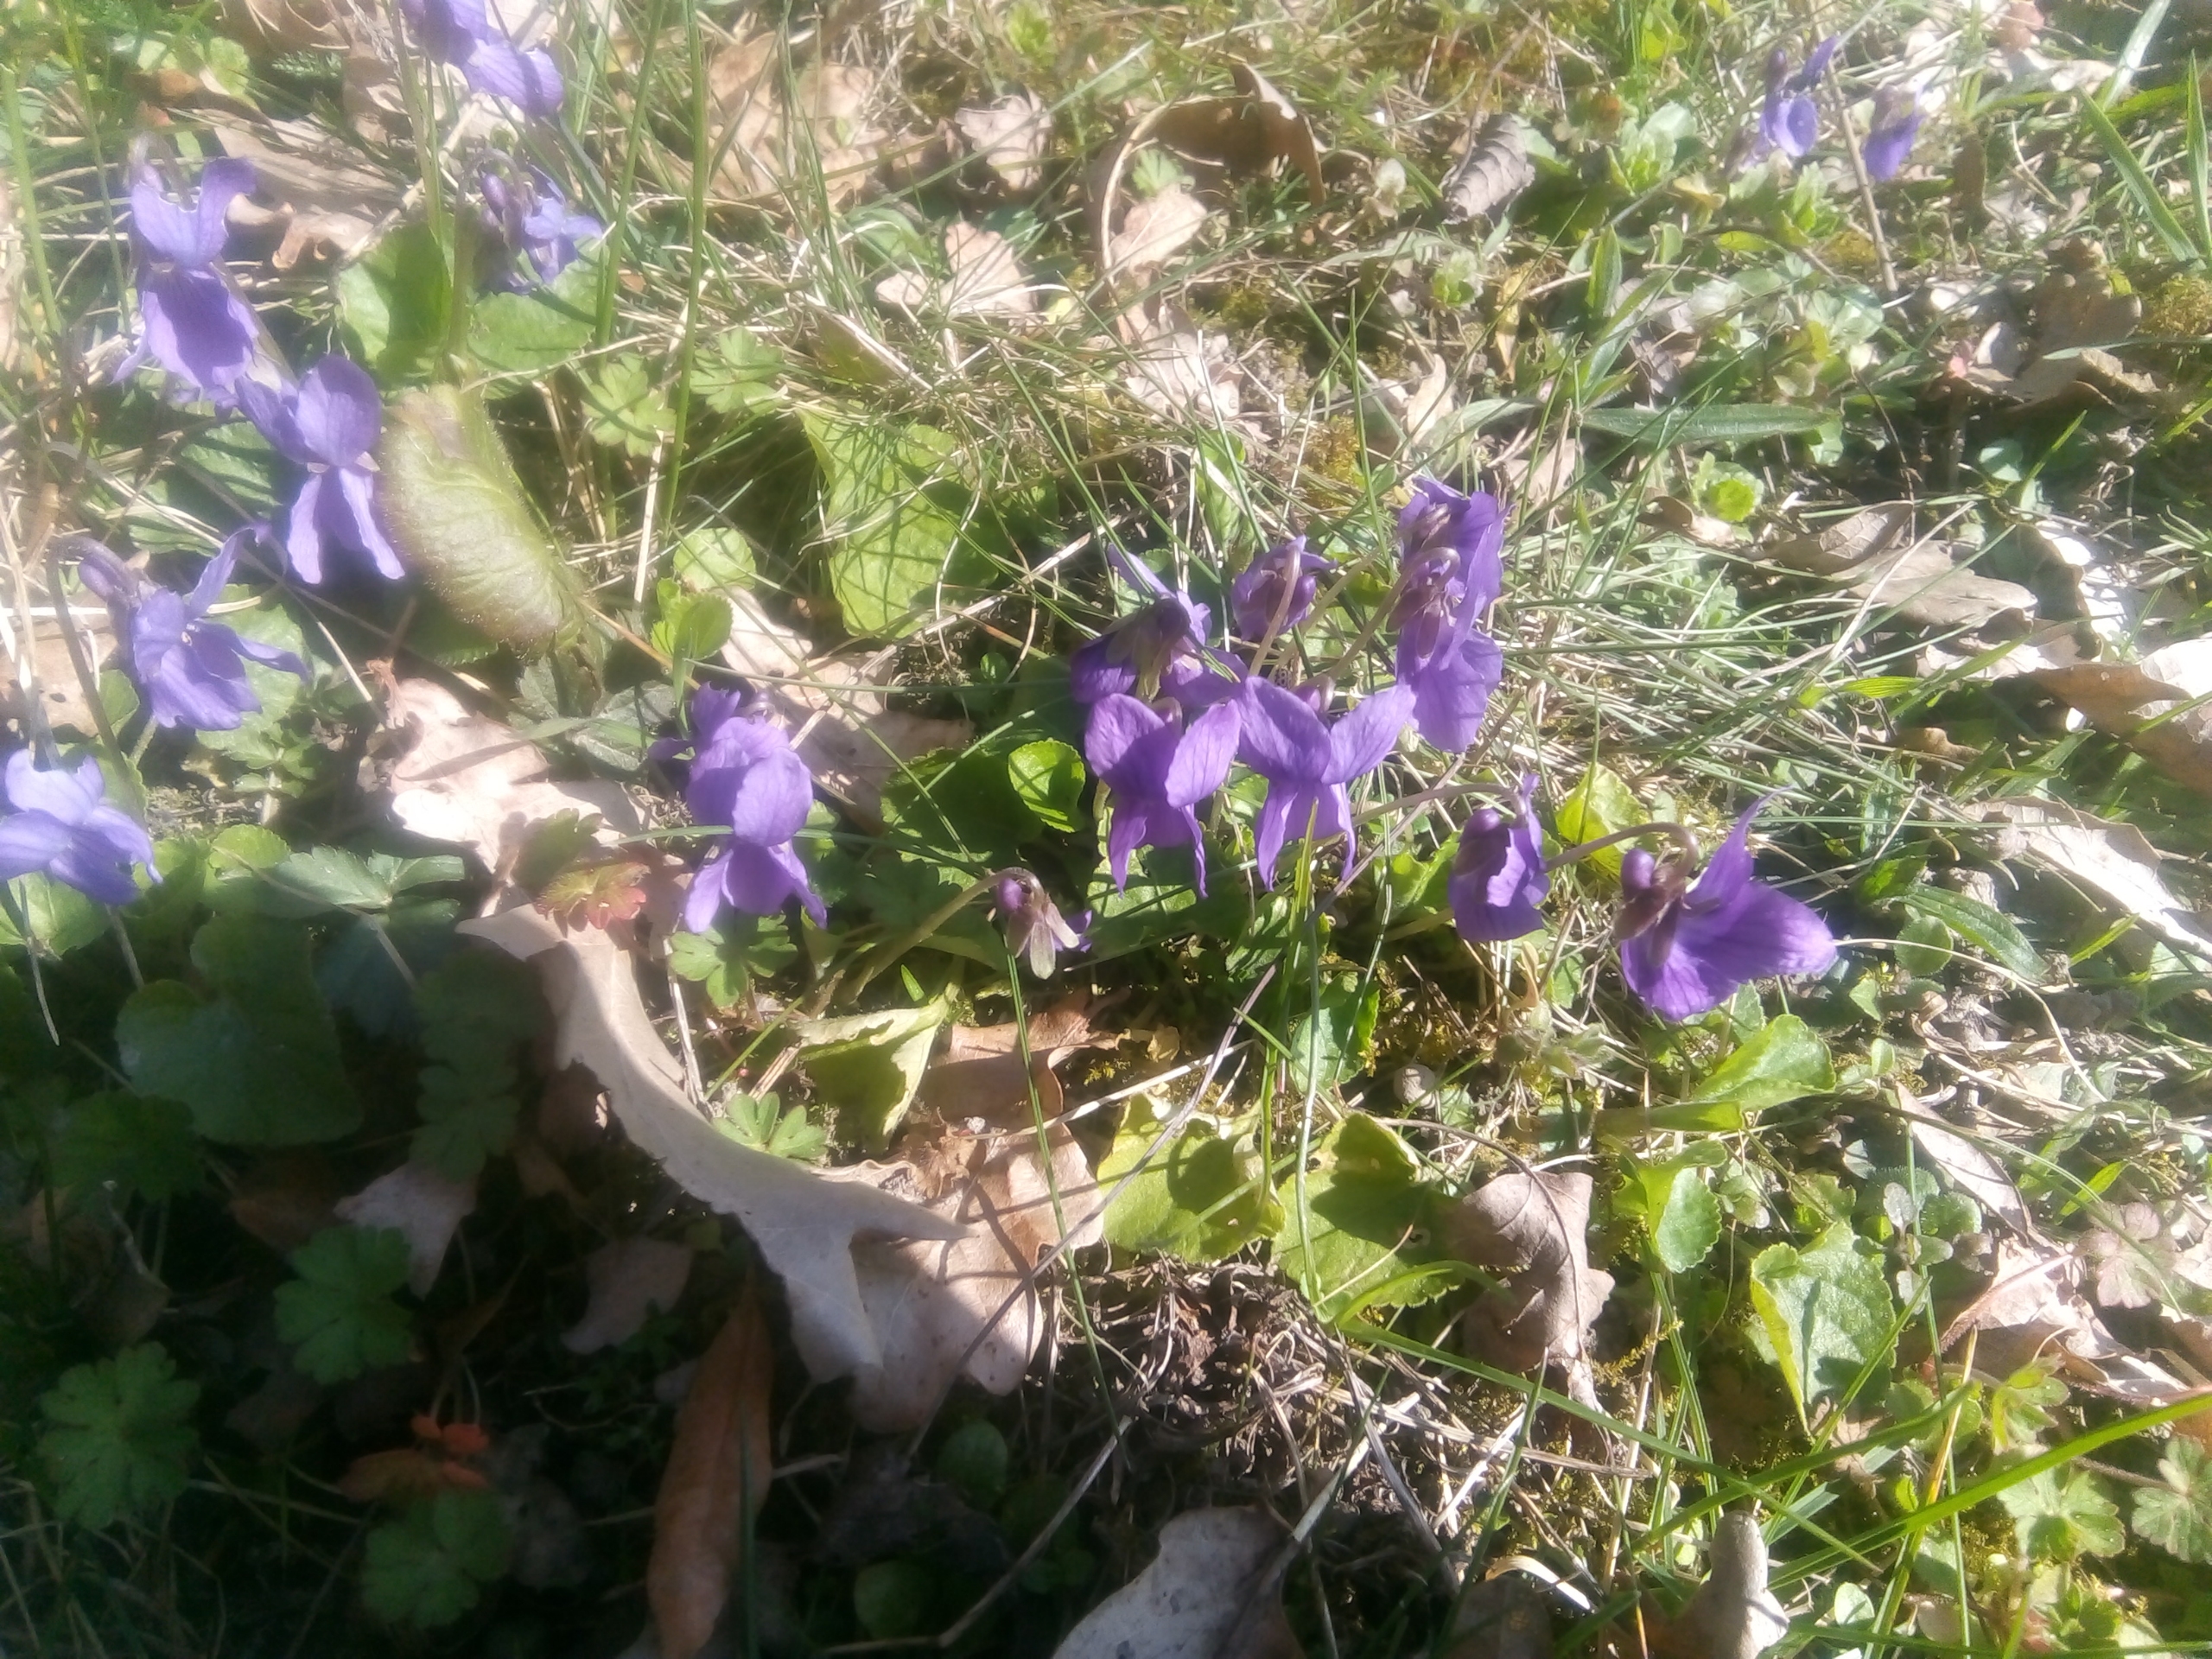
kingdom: Plantae
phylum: Tracheophyta
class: Magnoliopsida
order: Malpighiales
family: Violaceae
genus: Viola
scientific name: Viola odorata
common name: Marts-viol
